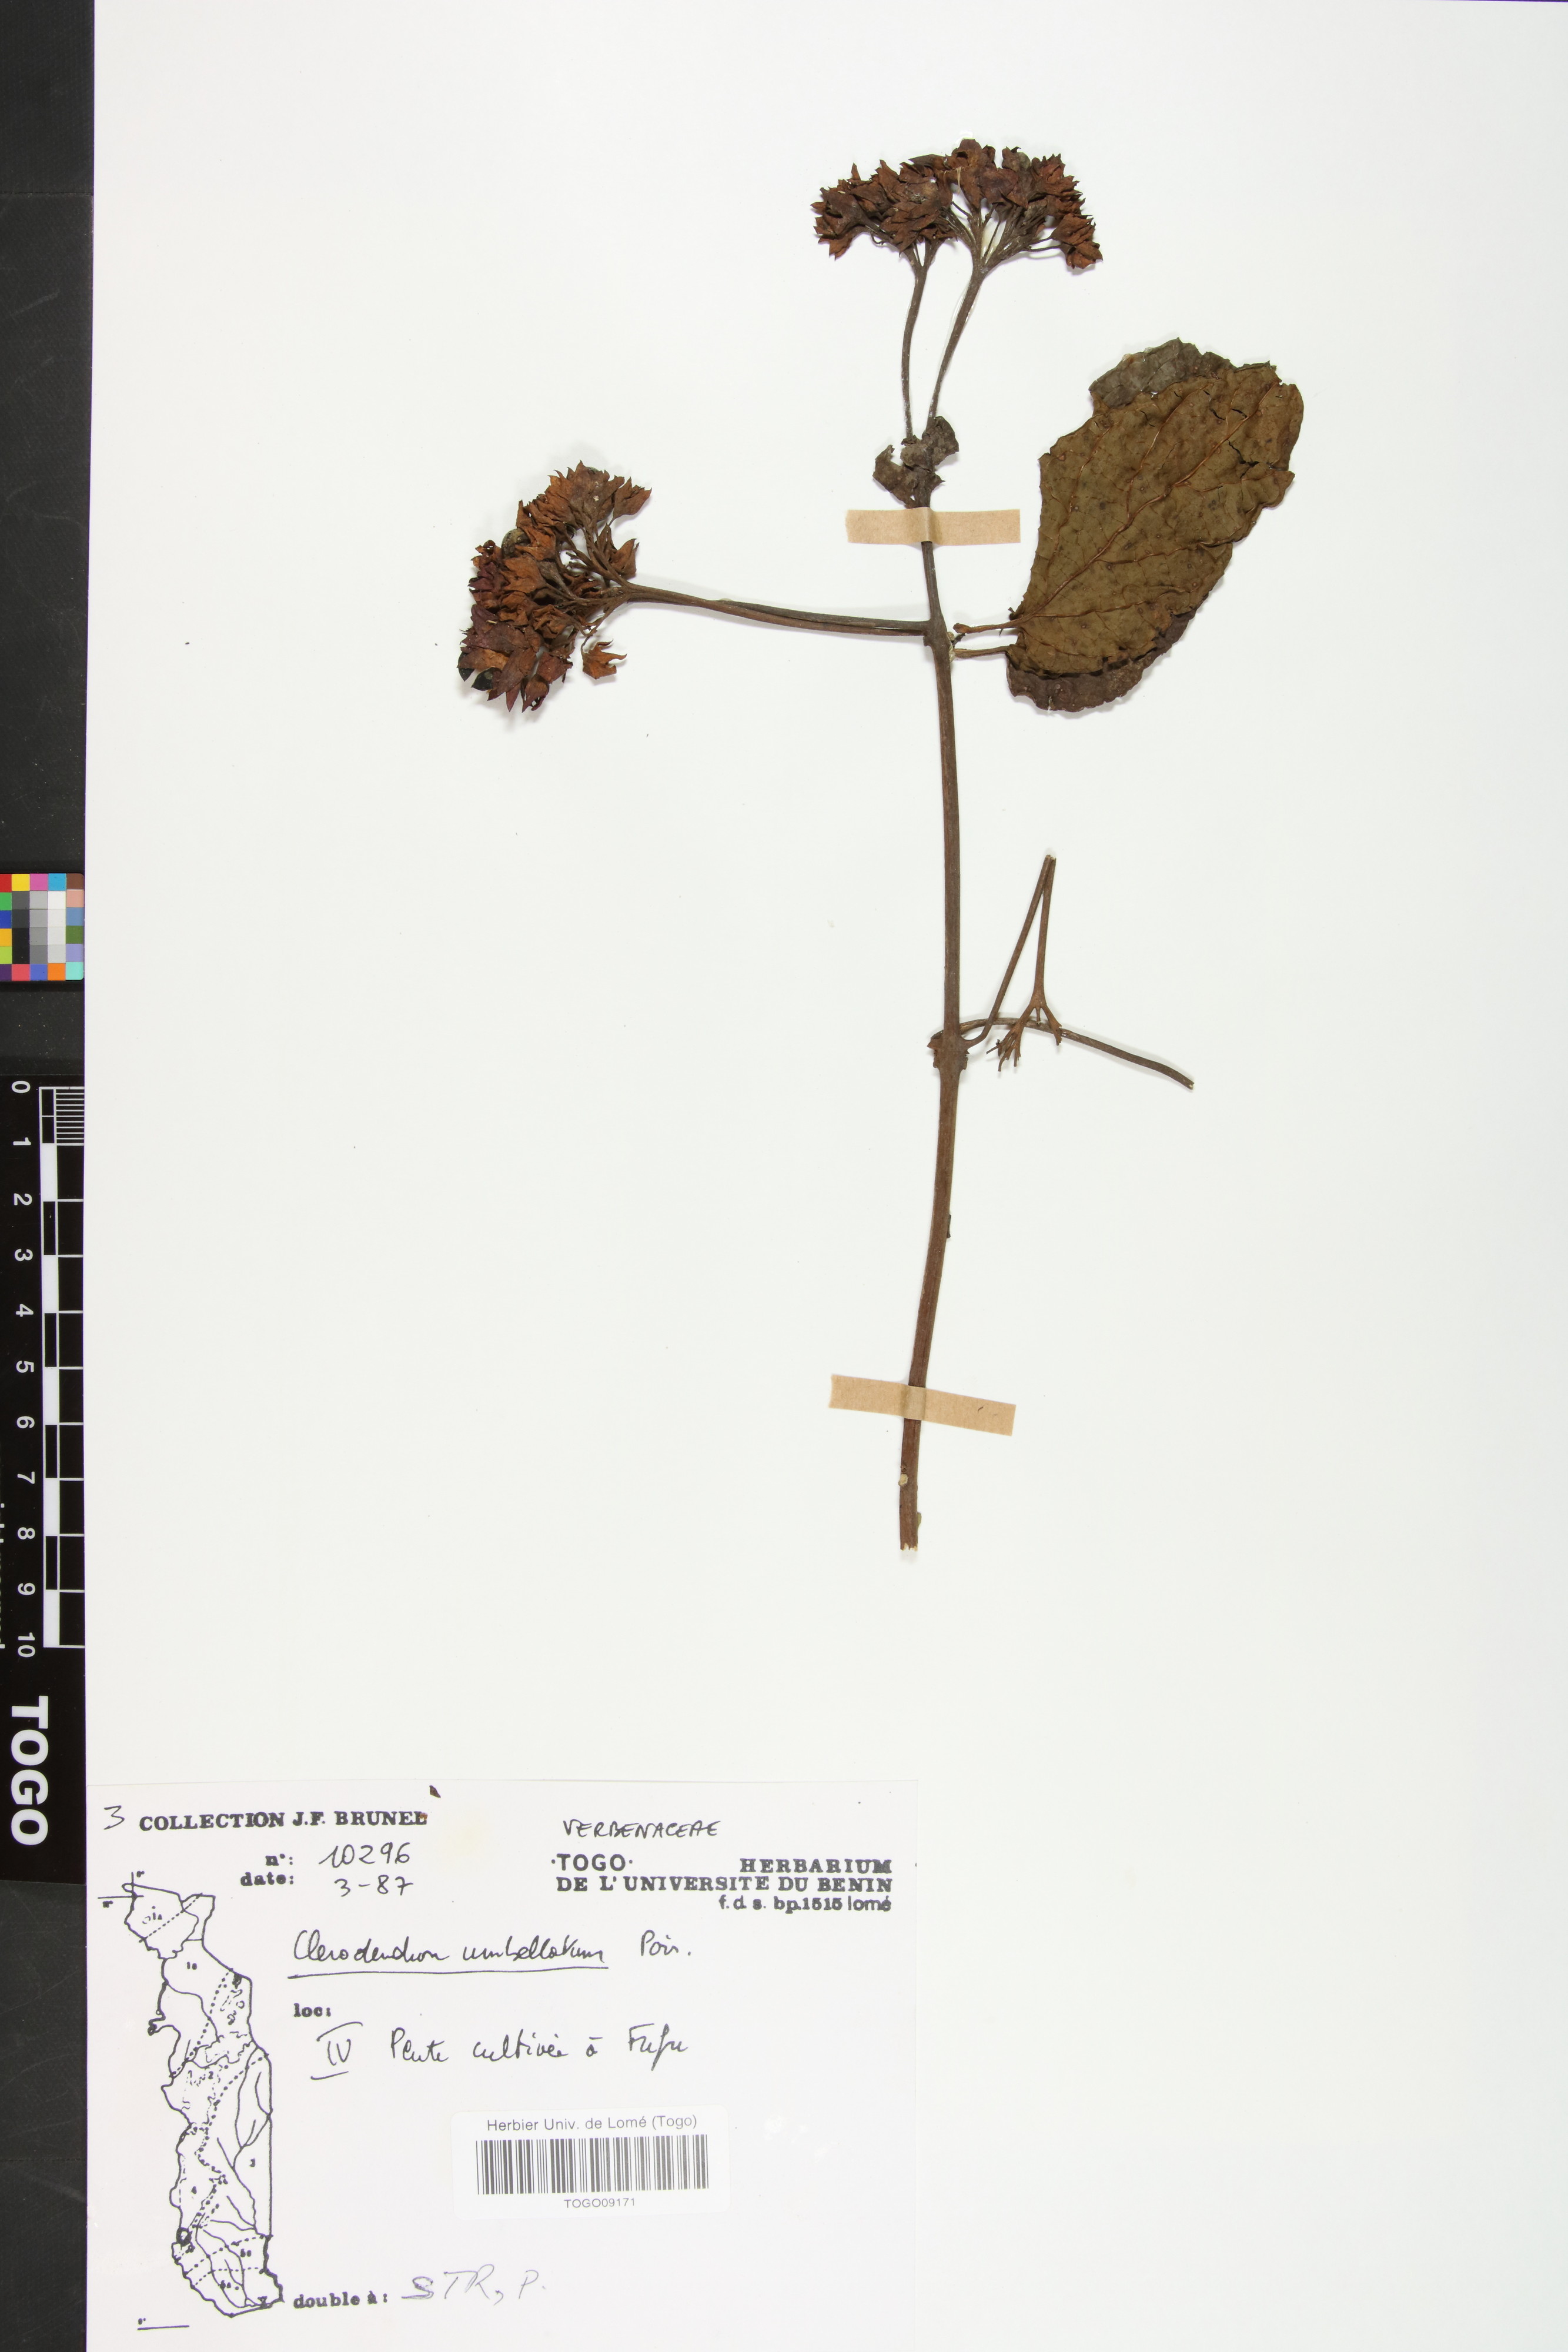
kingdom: Plantae
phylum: Tracheophyta
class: Magnoliopsida
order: Lamiales
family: Lamiaceae
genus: Clerodendrum
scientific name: Clerodendrum umbellatum
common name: Umbel clerodendrum
